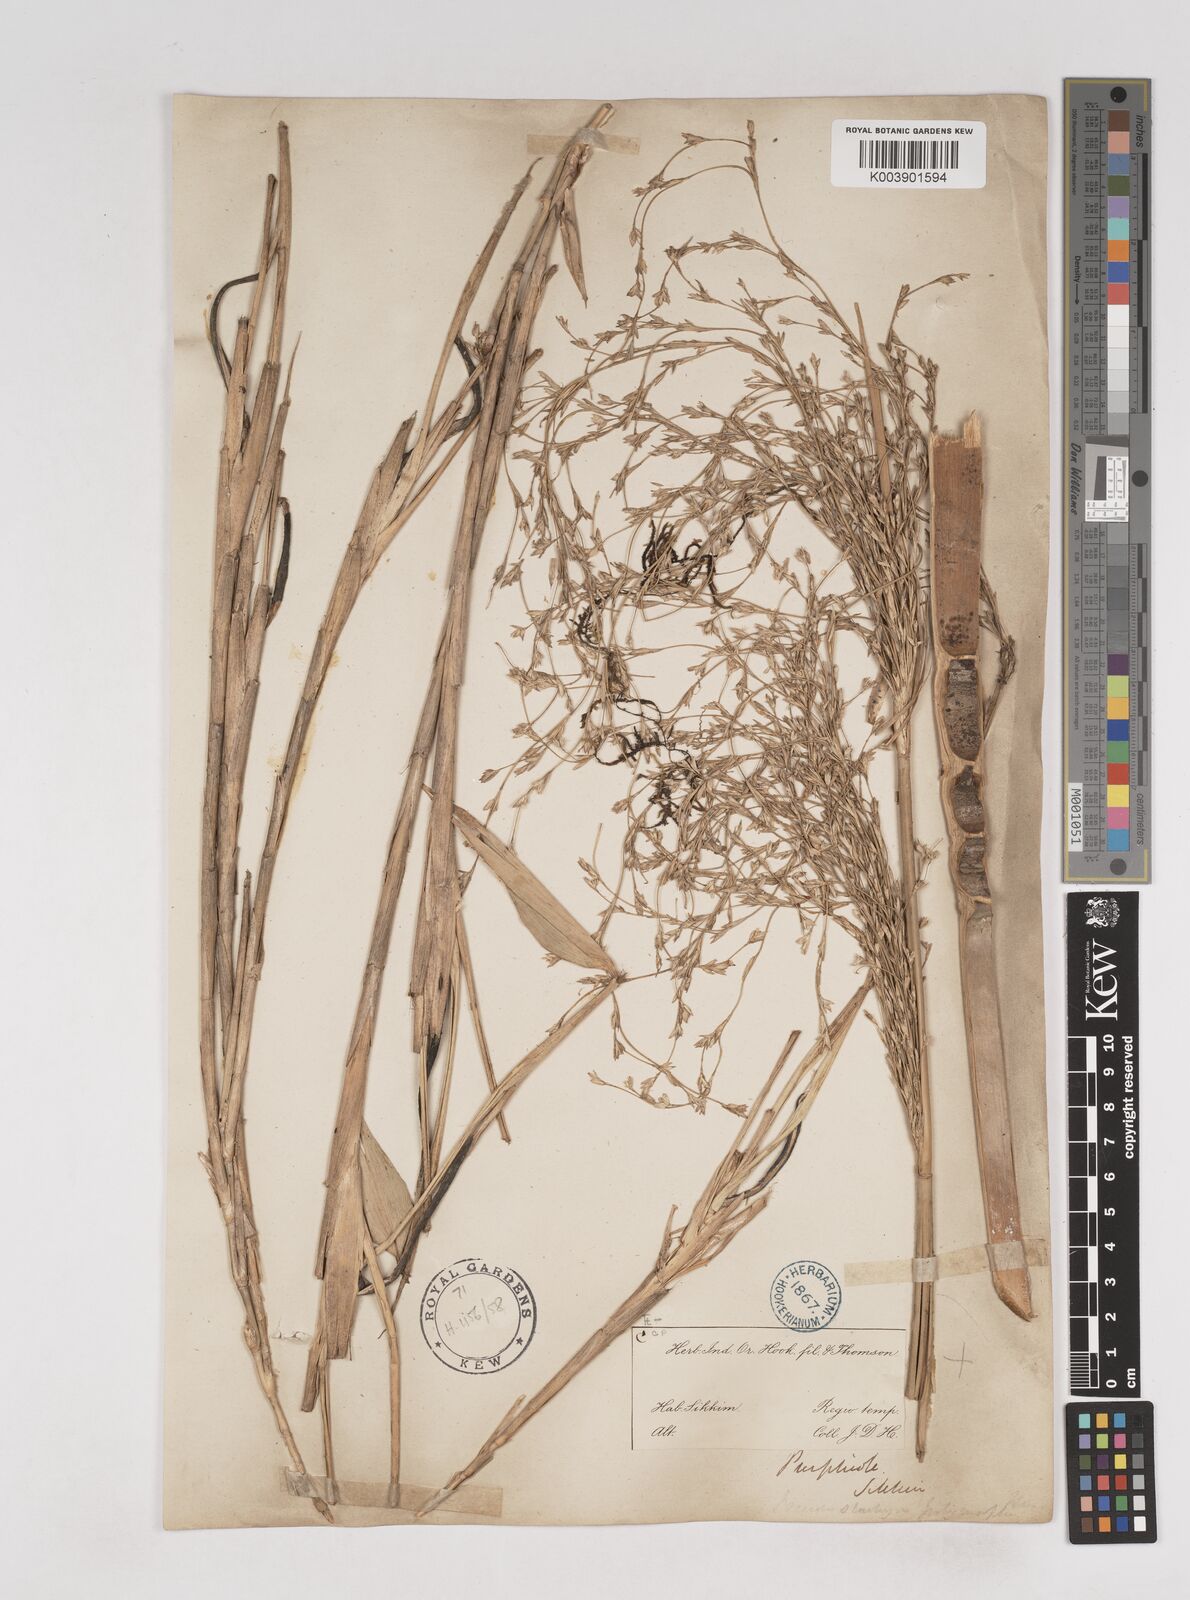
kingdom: Plantae
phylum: Tracheophyta
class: Liliopsida
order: Poales
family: Poaceae
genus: Pseudostachyum
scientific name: Pseudostachyum polymorphum
